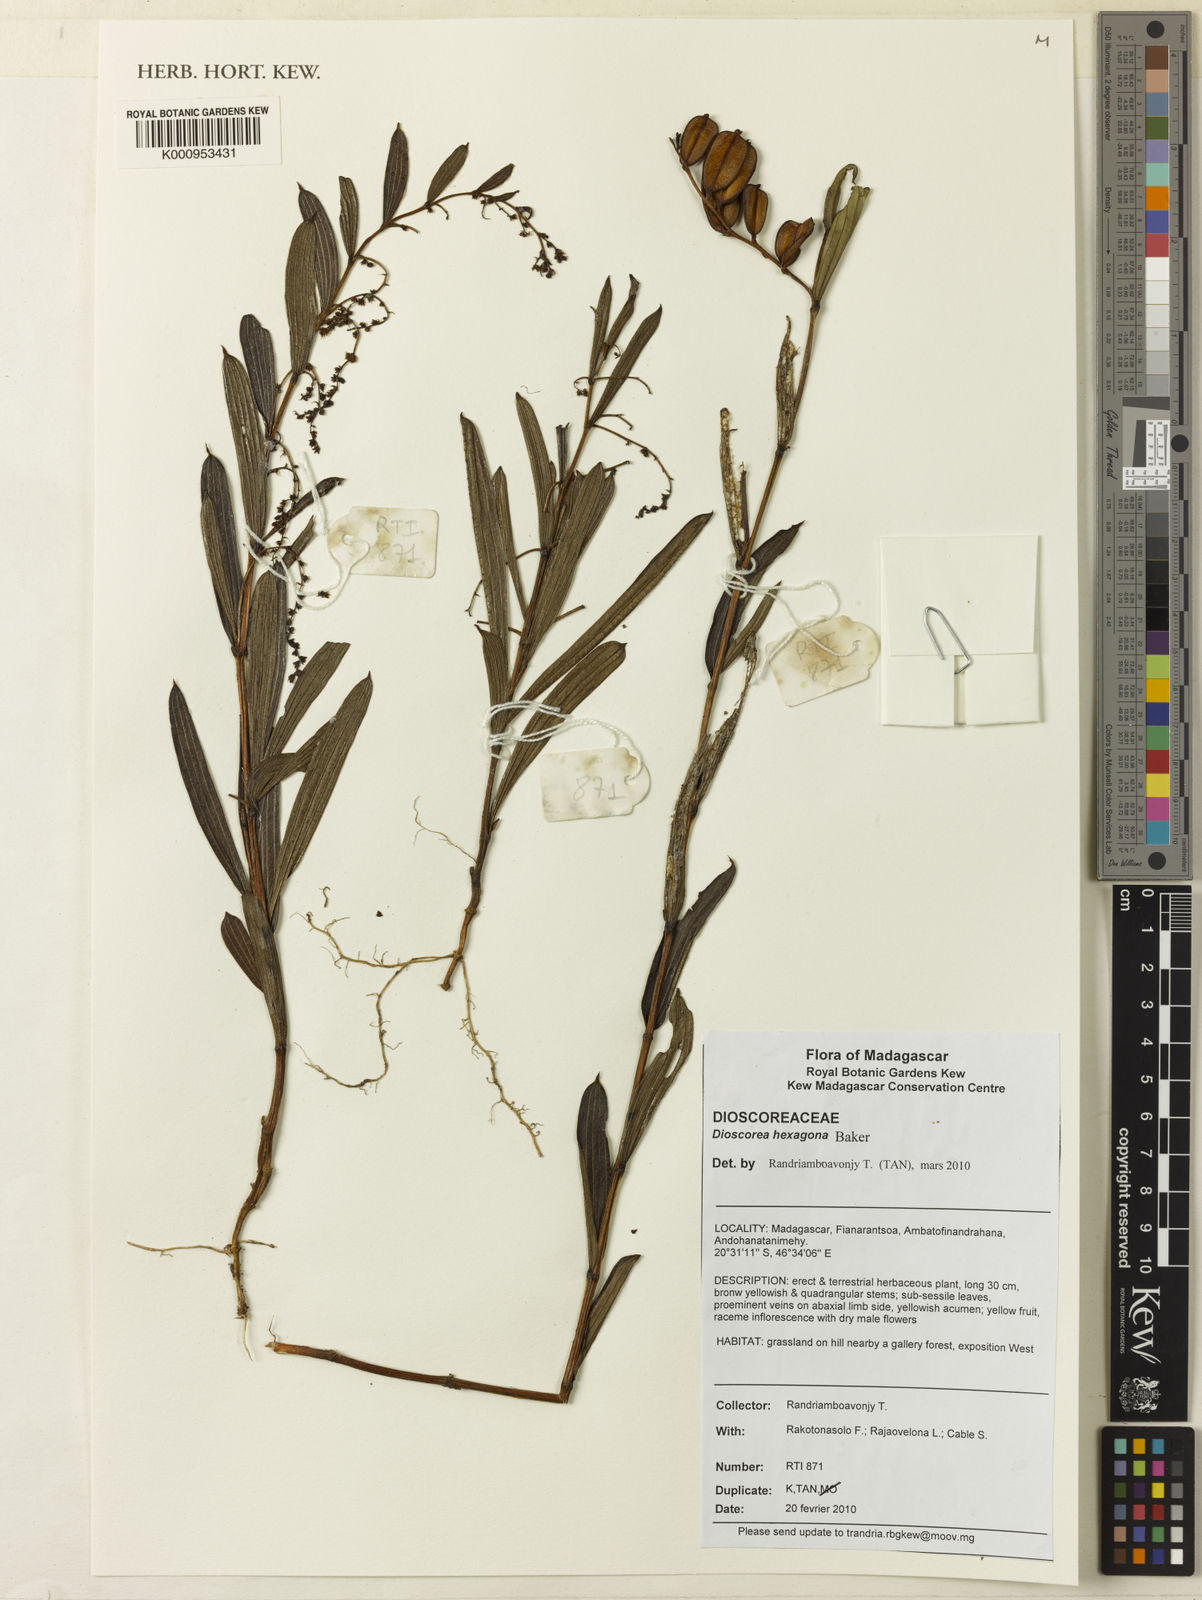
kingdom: Plantae
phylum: Tracheophyta
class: Liliopsida
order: Dioscoreales
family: Dioscoreaceae
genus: Dioscorea
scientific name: Dioscorea hexagona
